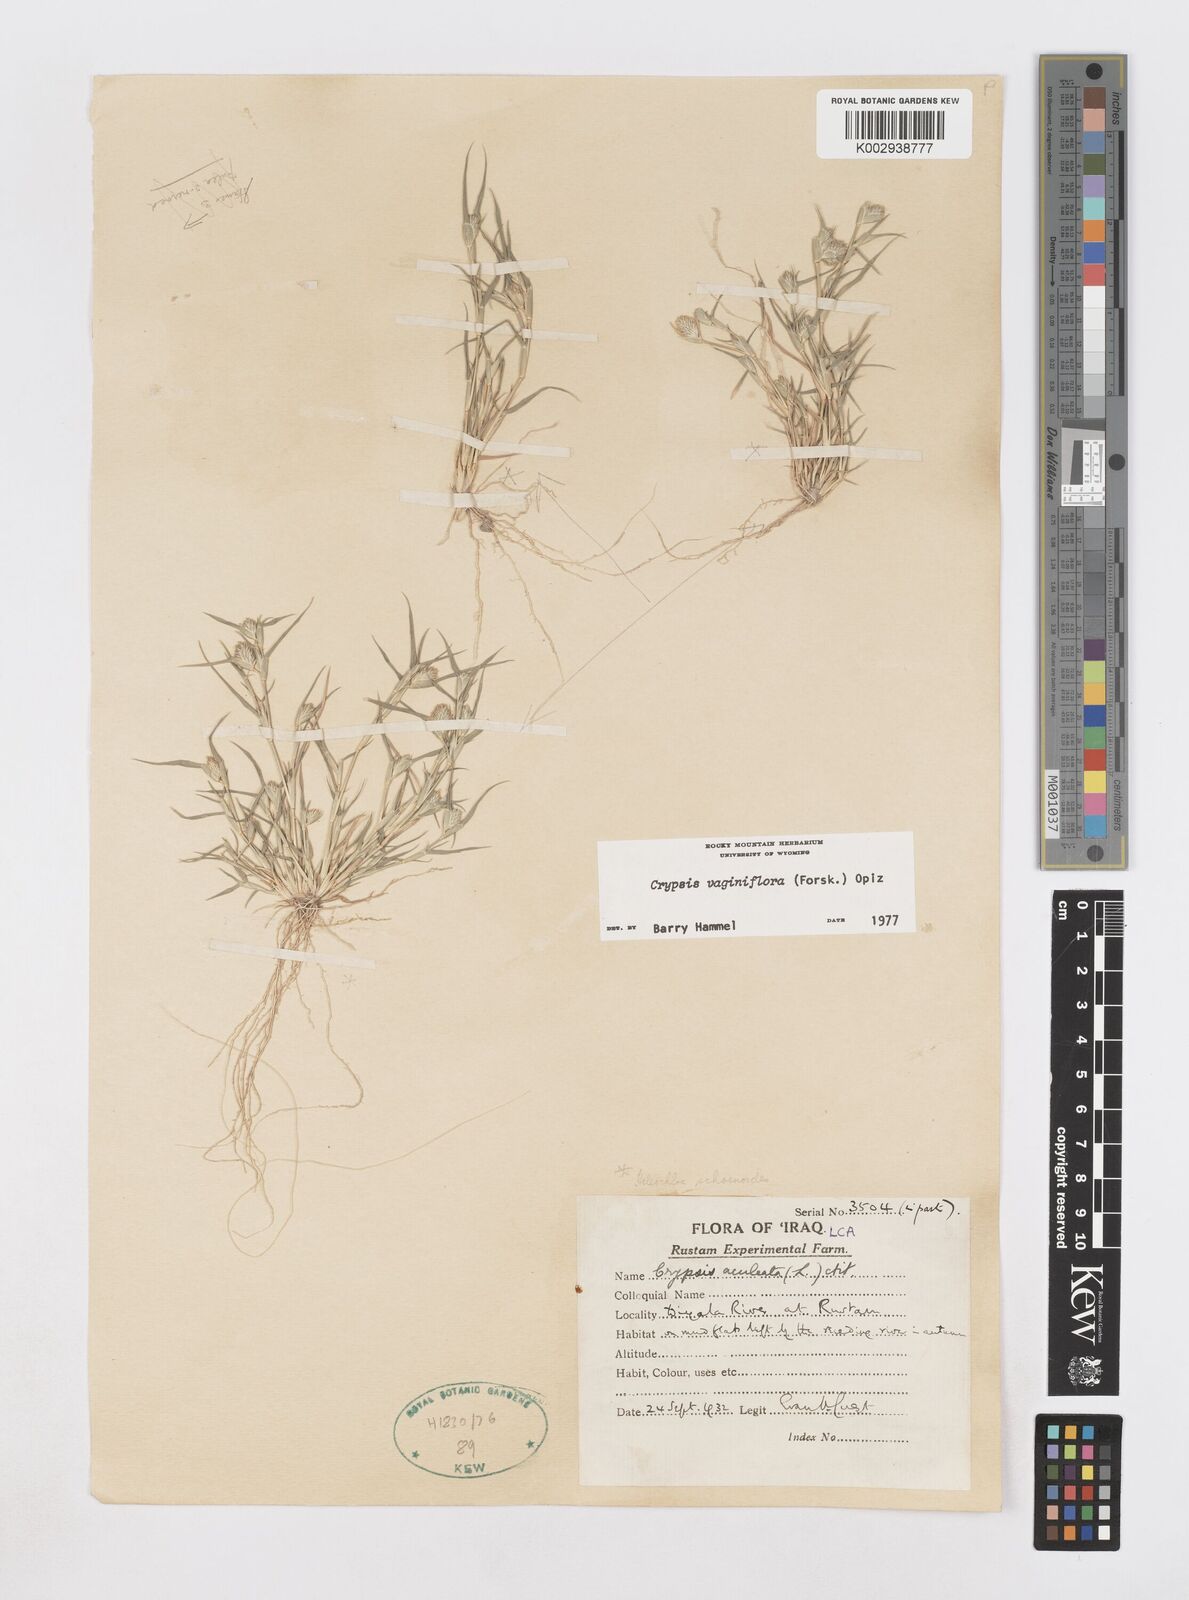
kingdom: Plantae
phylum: Tracheophyta
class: Liliopsida
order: Poales
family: Poaceae
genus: Sporobolus
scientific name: Sporobolus niliacus
